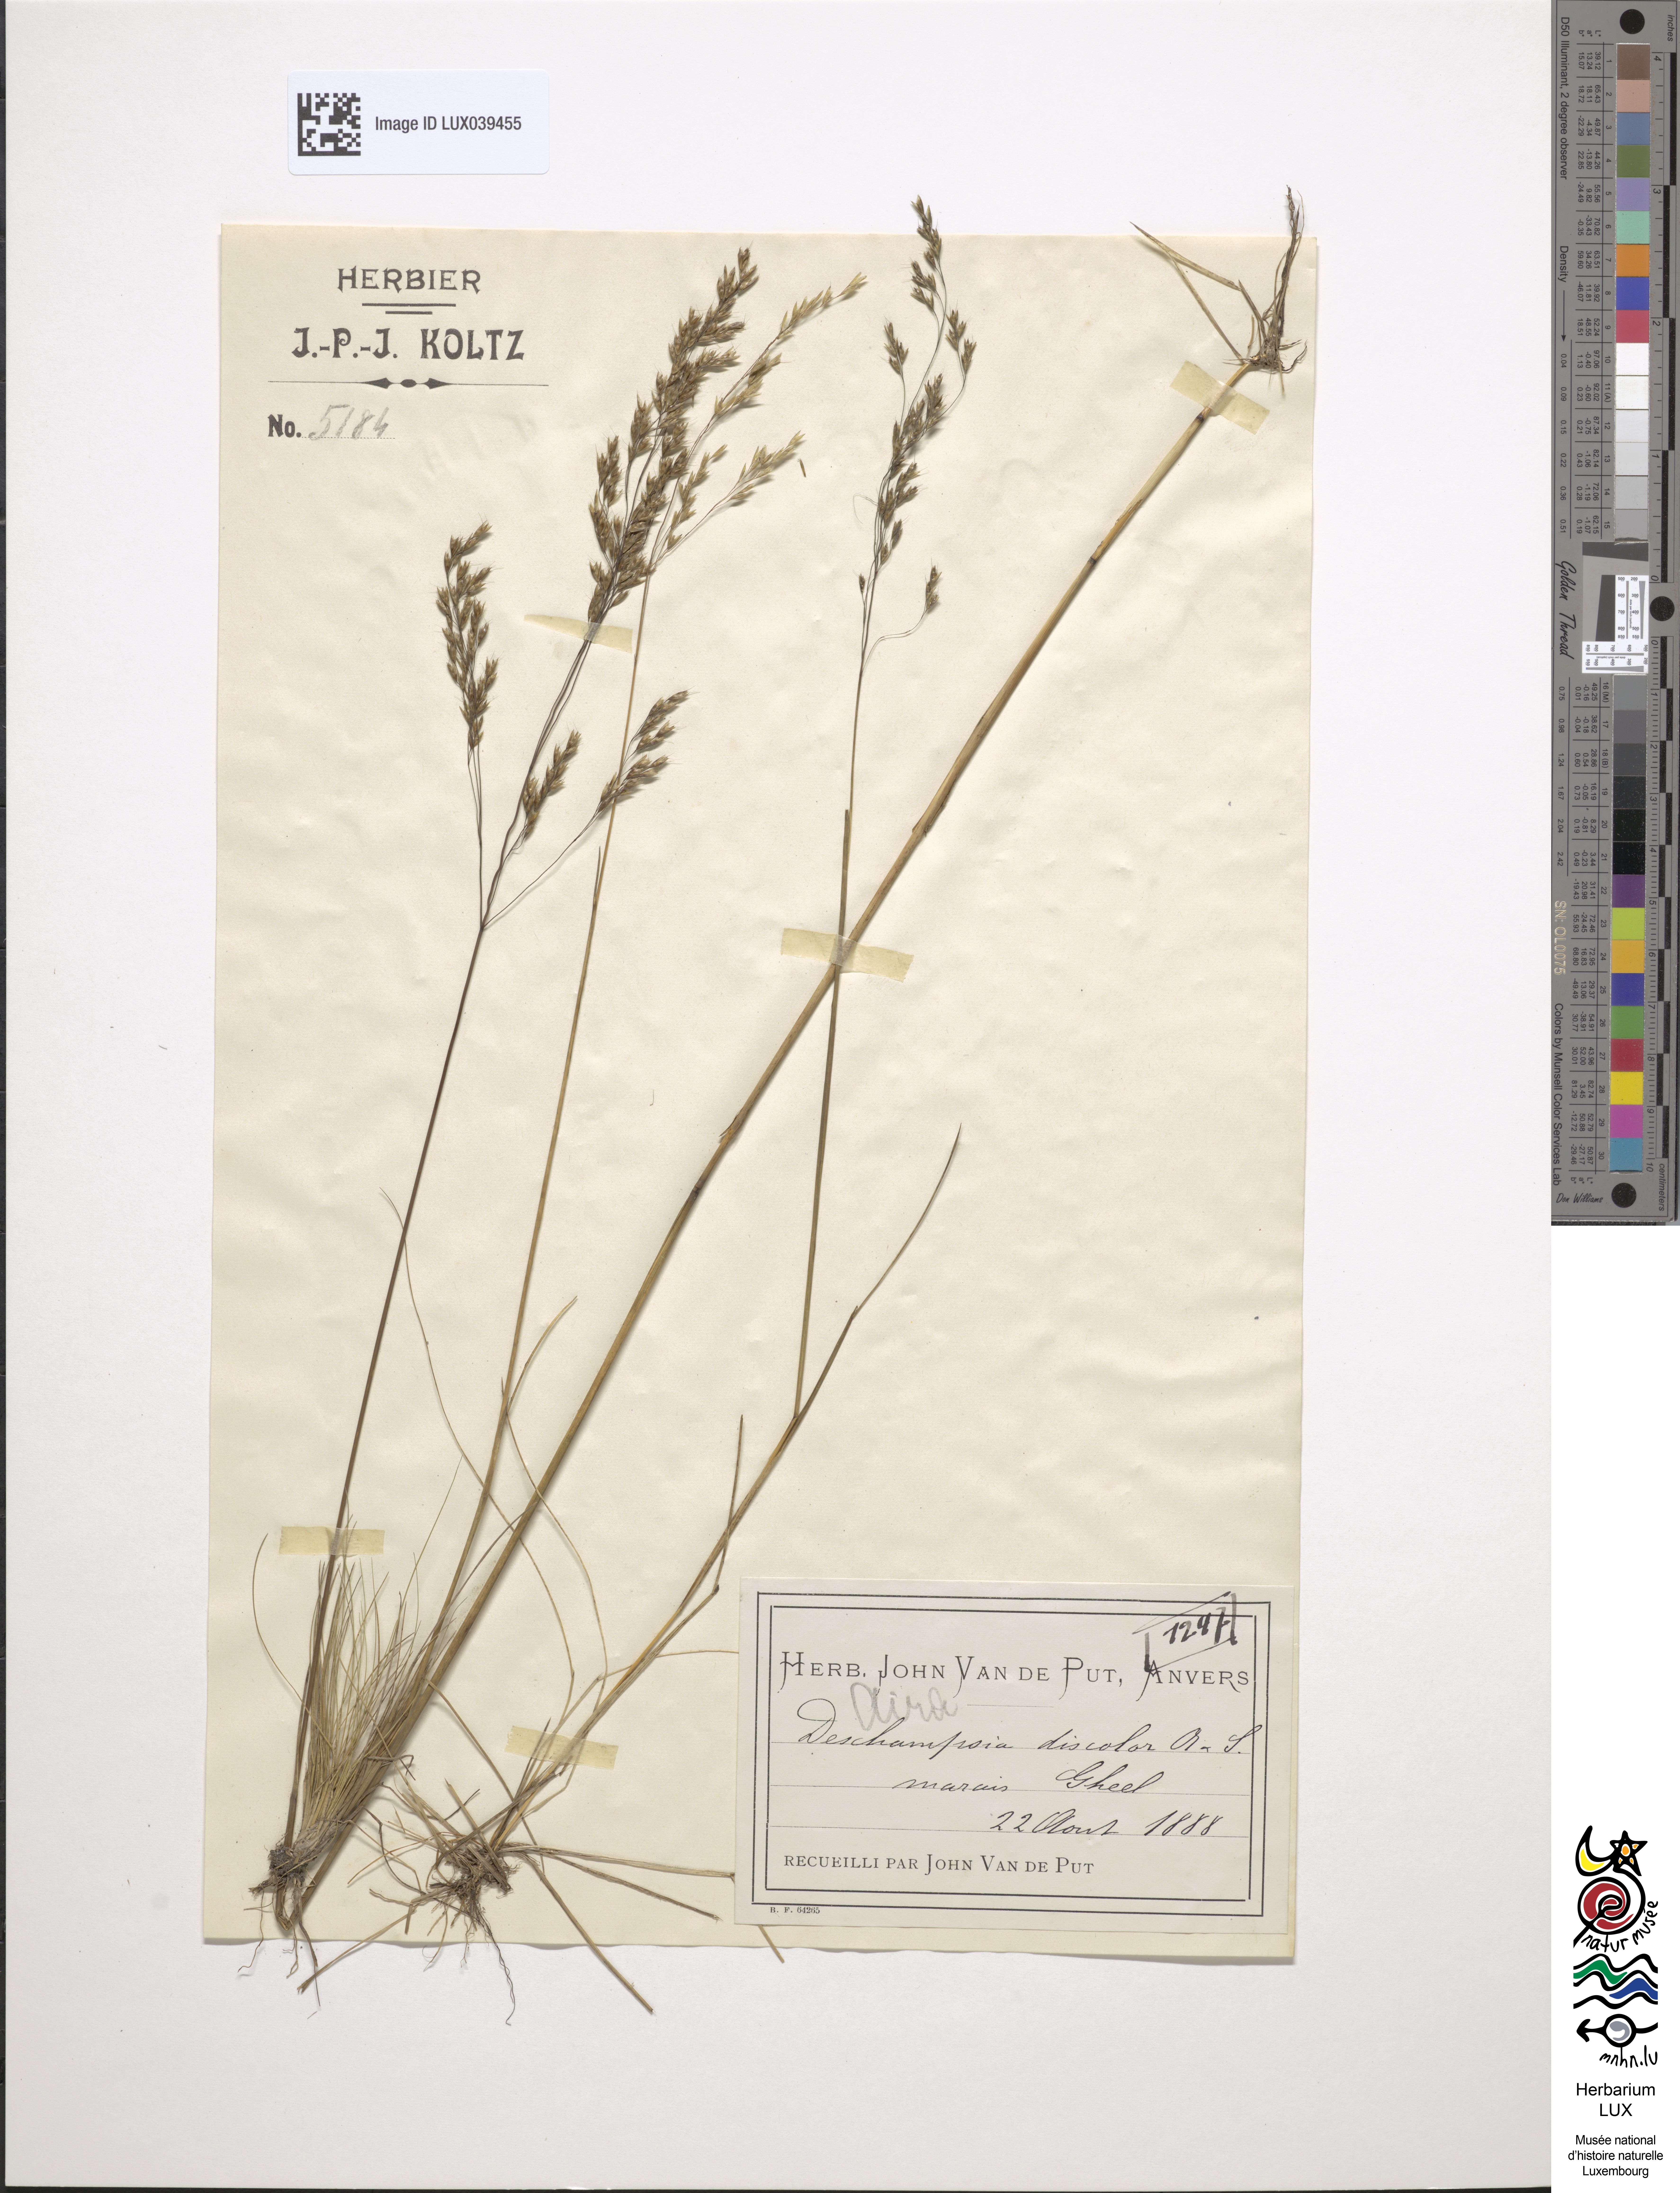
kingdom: Plantae
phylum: Tracheophyta
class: Liliopsida
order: Poales
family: Poaceae
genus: Deschampsia
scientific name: Deschampsia setacea
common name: Bog hair-grass
